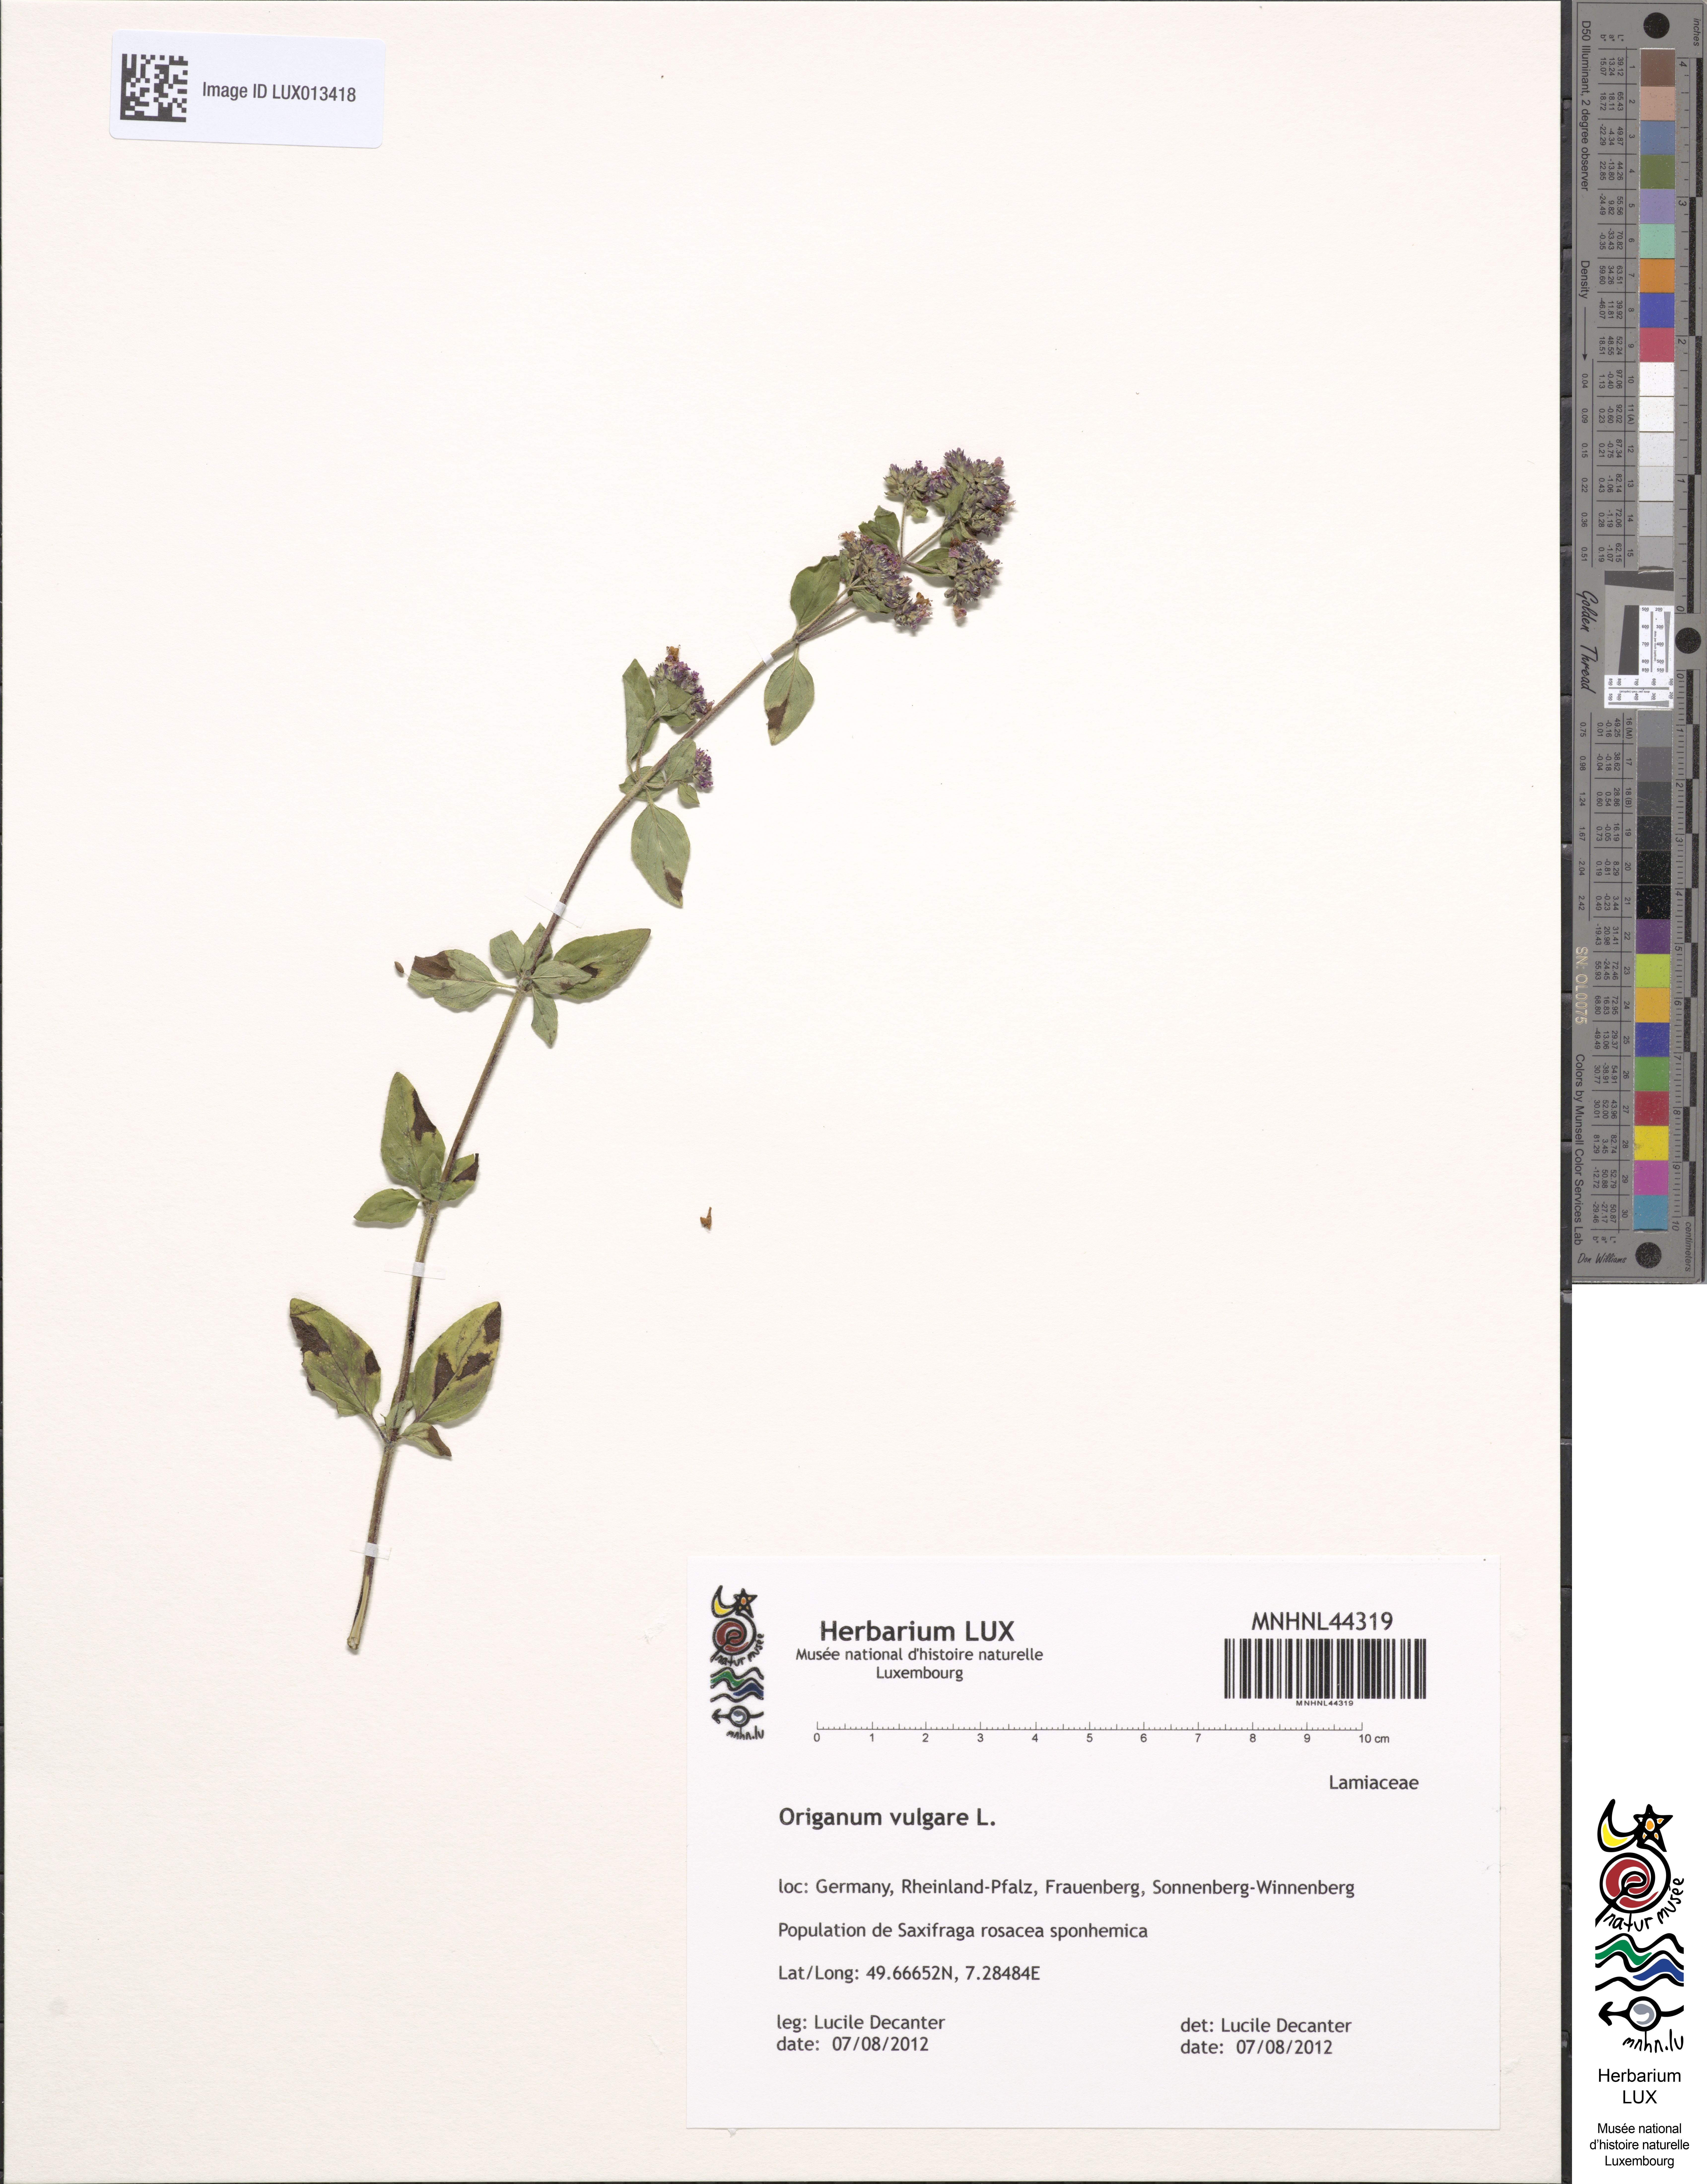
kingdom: Plantae
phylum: Tracheophyta
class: Magnoliopsida
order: Lamiales
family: Lamiaceae
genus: Origanum
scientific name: Origanum vulgare
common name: Wild marjoram
